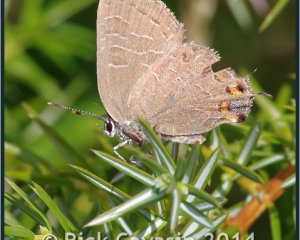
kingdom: Animalia
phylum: Arthropoda
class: Insecta
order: Lepidoptera
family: Lycaenidae
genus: Satyrium
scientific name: Satyrium liparops
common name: Striped Hairstreak
